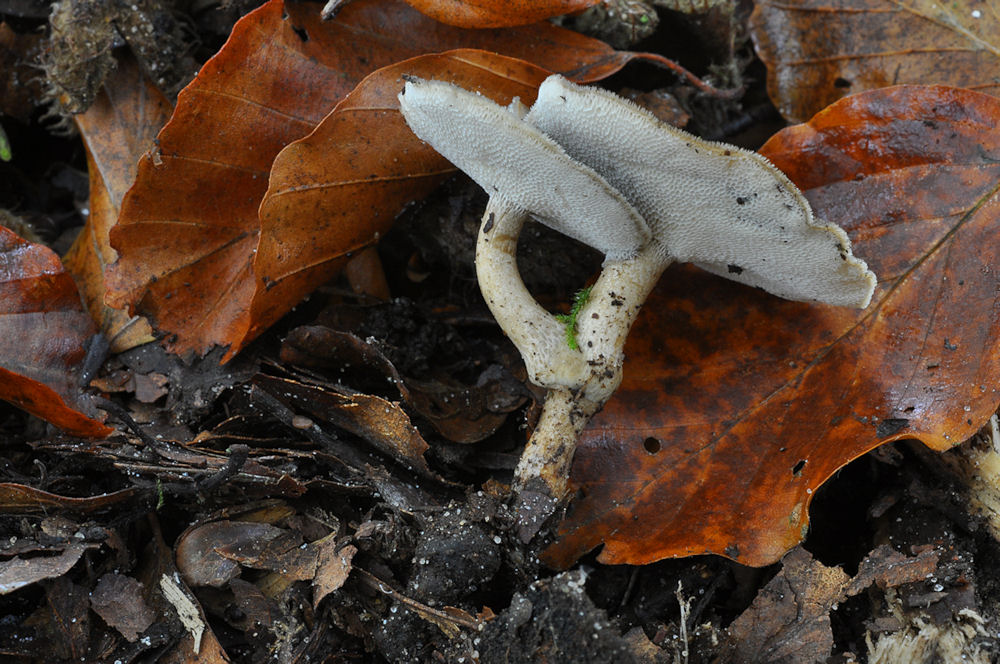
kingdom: Fungi
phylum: Basidiomycota
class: Agaricomycetes
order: Polyporales
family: Polyporaceae
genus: Lentinus
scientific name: Lentinus brumalis
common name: vinter-stilkporesvamp
